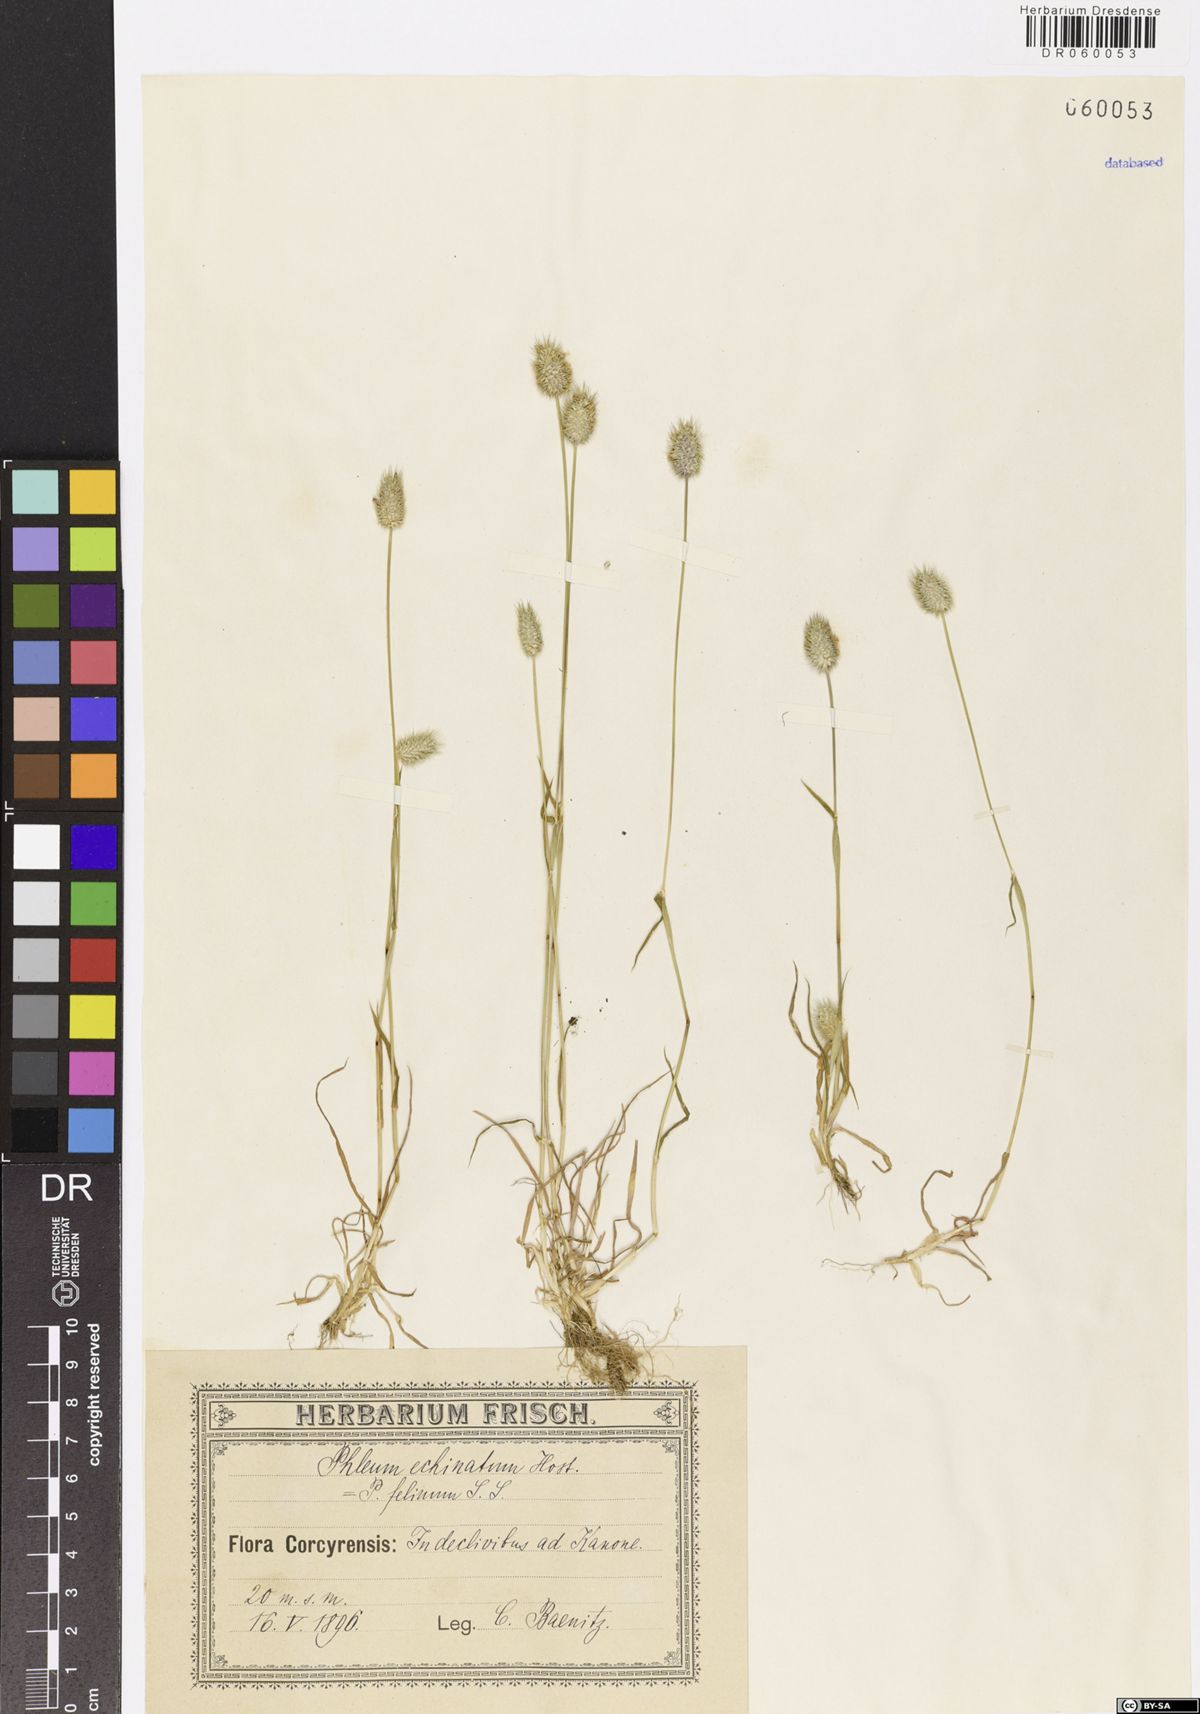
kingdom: Plantae
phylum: Tracheophyta
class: Liliopsida
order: Poales
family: Poaceae
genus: Phleum
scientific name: Phleum echinatum
